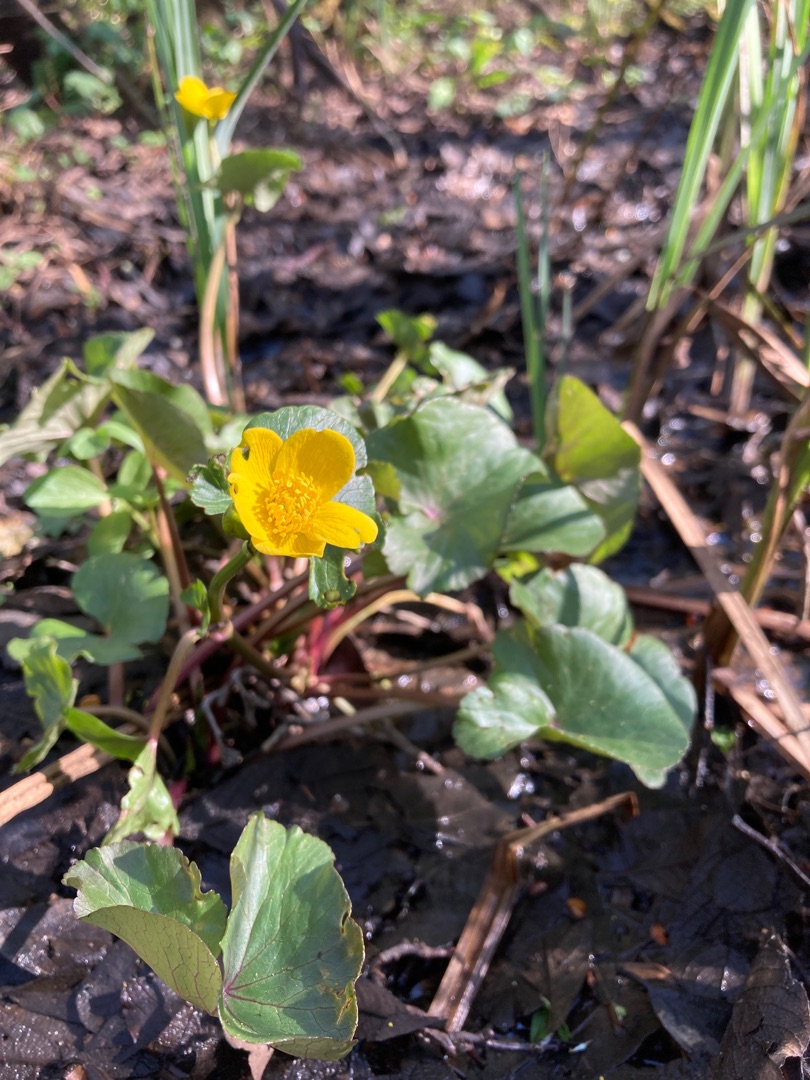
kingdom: Plantae
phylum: Tracheophyta
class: Magnoliopsida
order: Ranunculales
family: Ranunculaceae
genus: Caltha
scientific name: Caltha palustris
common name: Eng-kabbeleje
